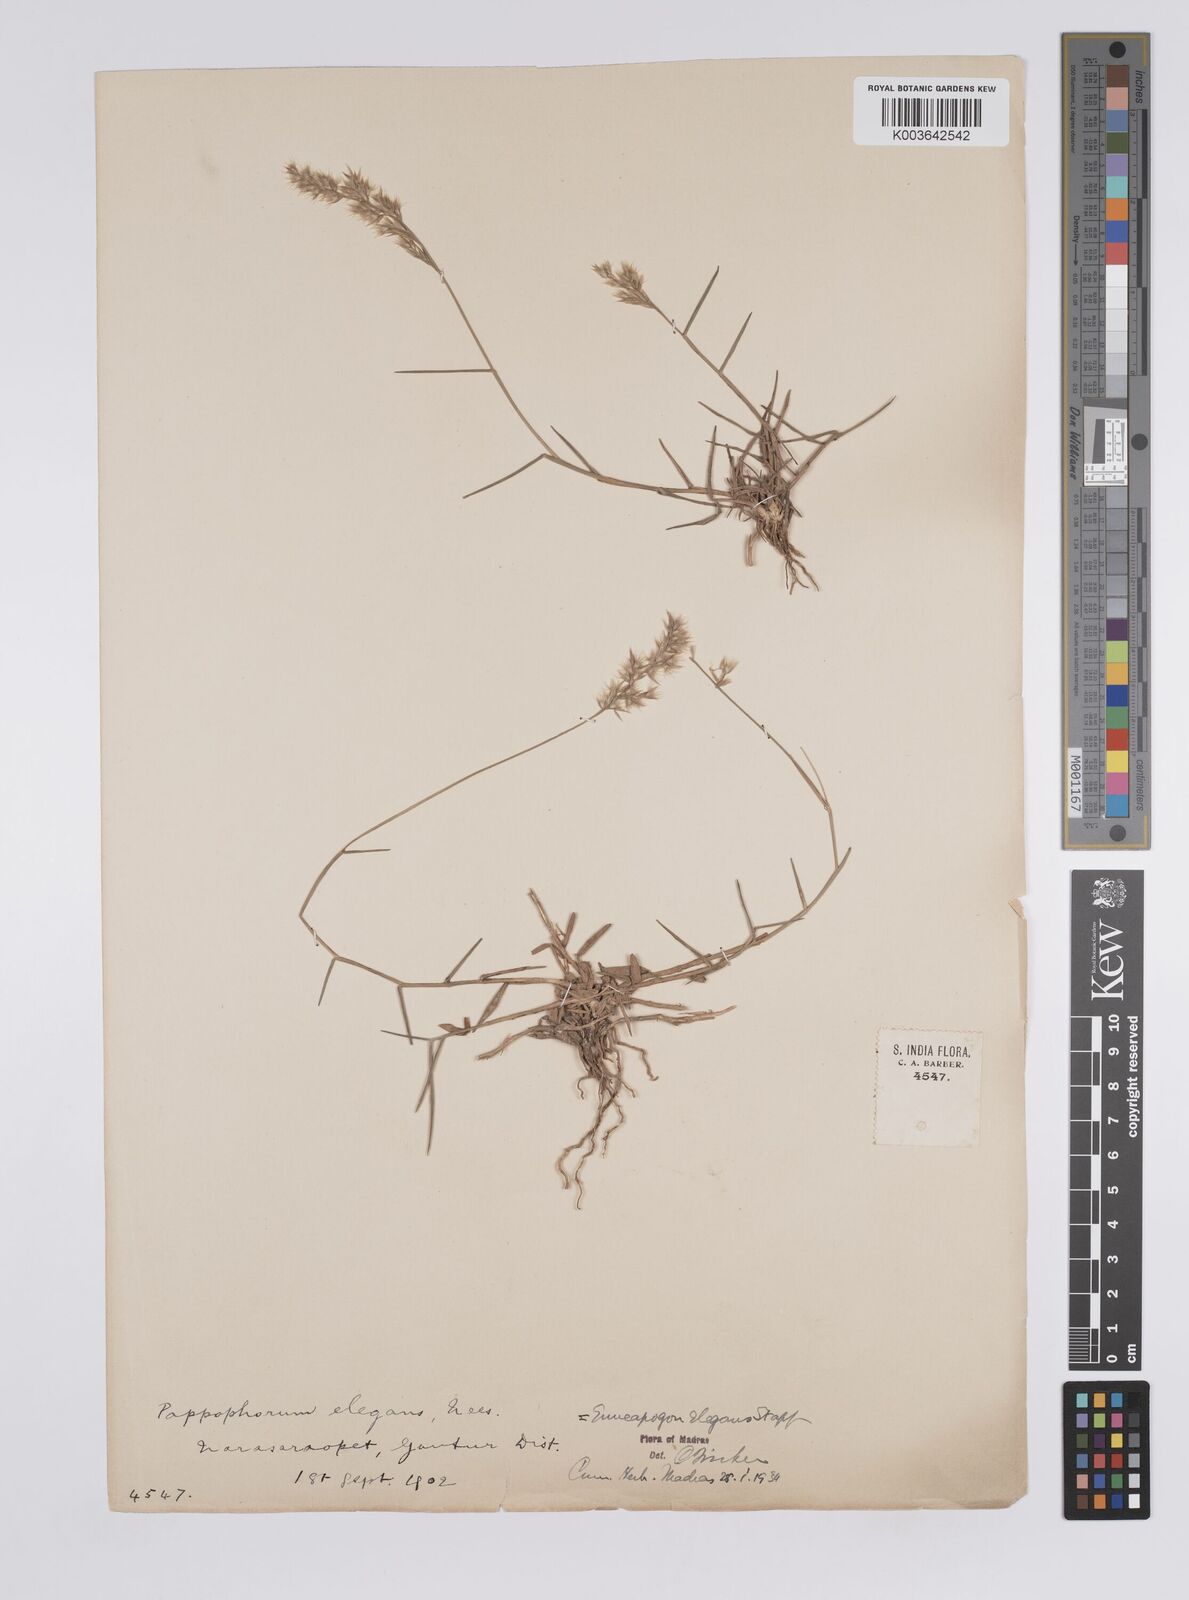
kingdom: Plantae
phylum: Tracheophyta
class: Liliopsida
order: Poales
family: Poaceae
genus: Enneapogon
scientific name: Enneapogon persicus
